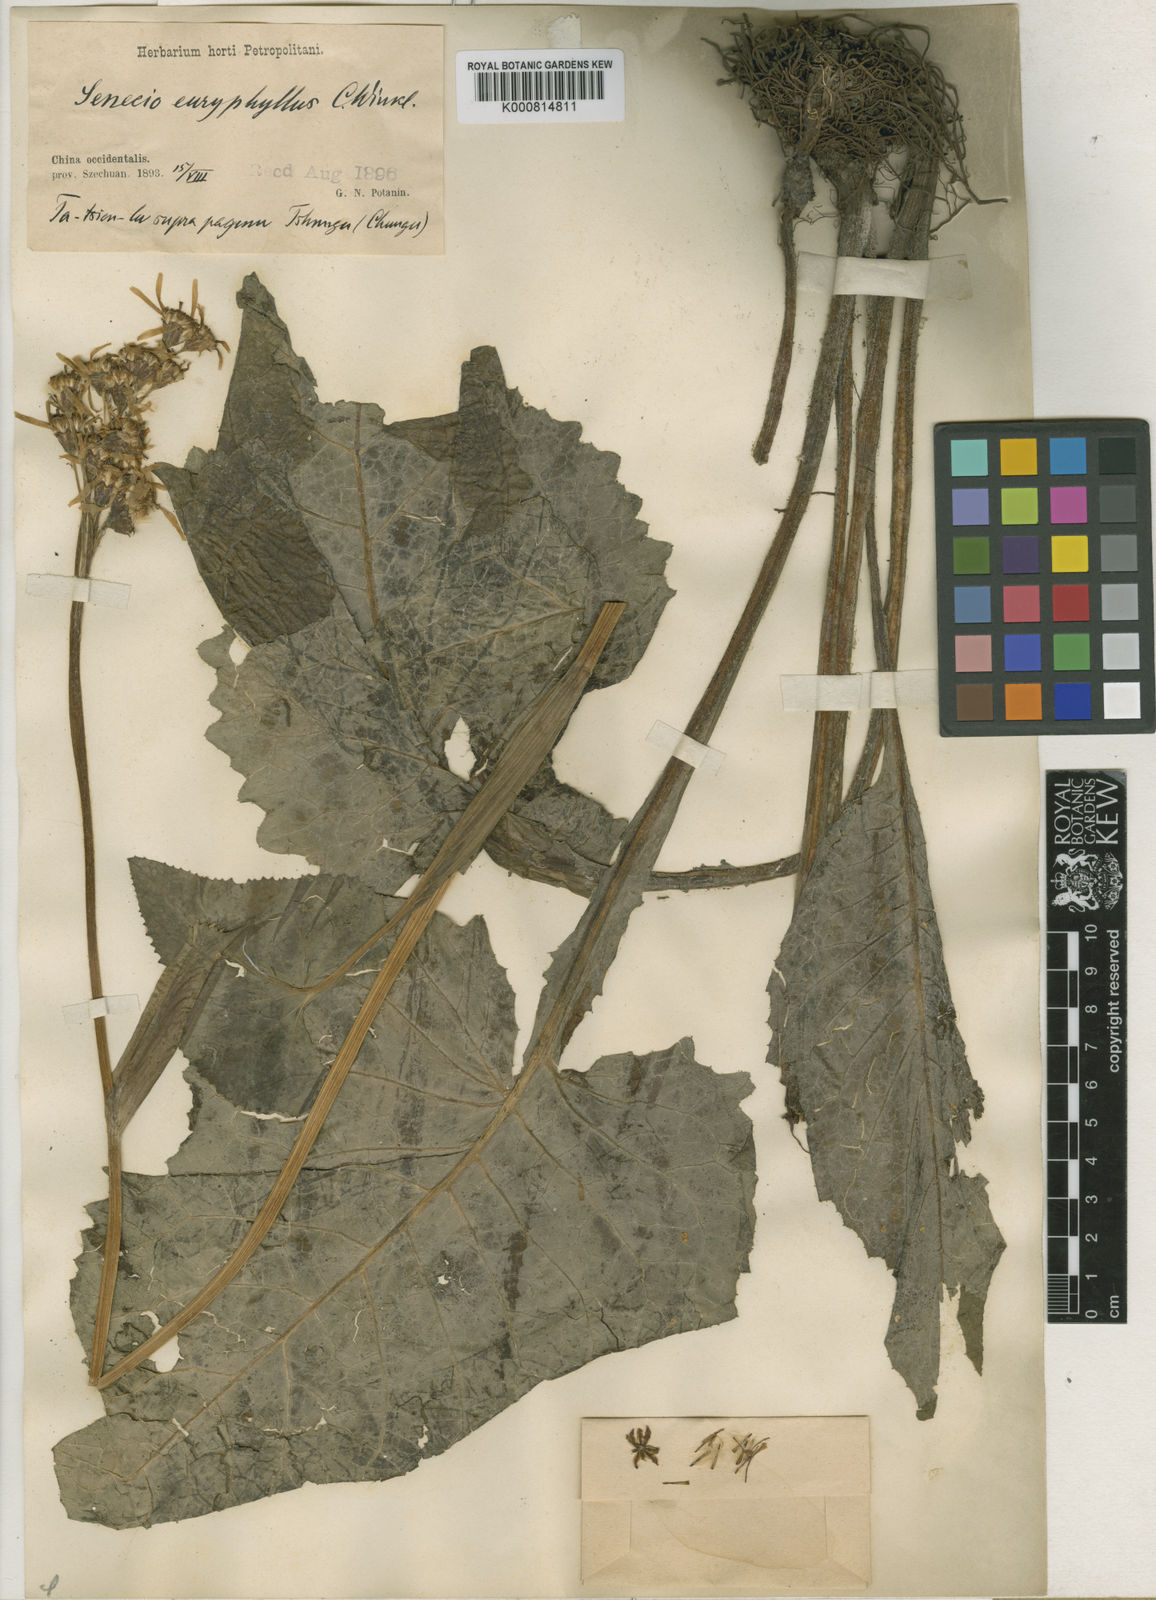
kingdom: Plantae
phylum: Tracheophyta
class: Magnoliopsida
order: Asterales
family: Asteraceae
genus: Ligularia
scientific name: Ligularia euryphylla
